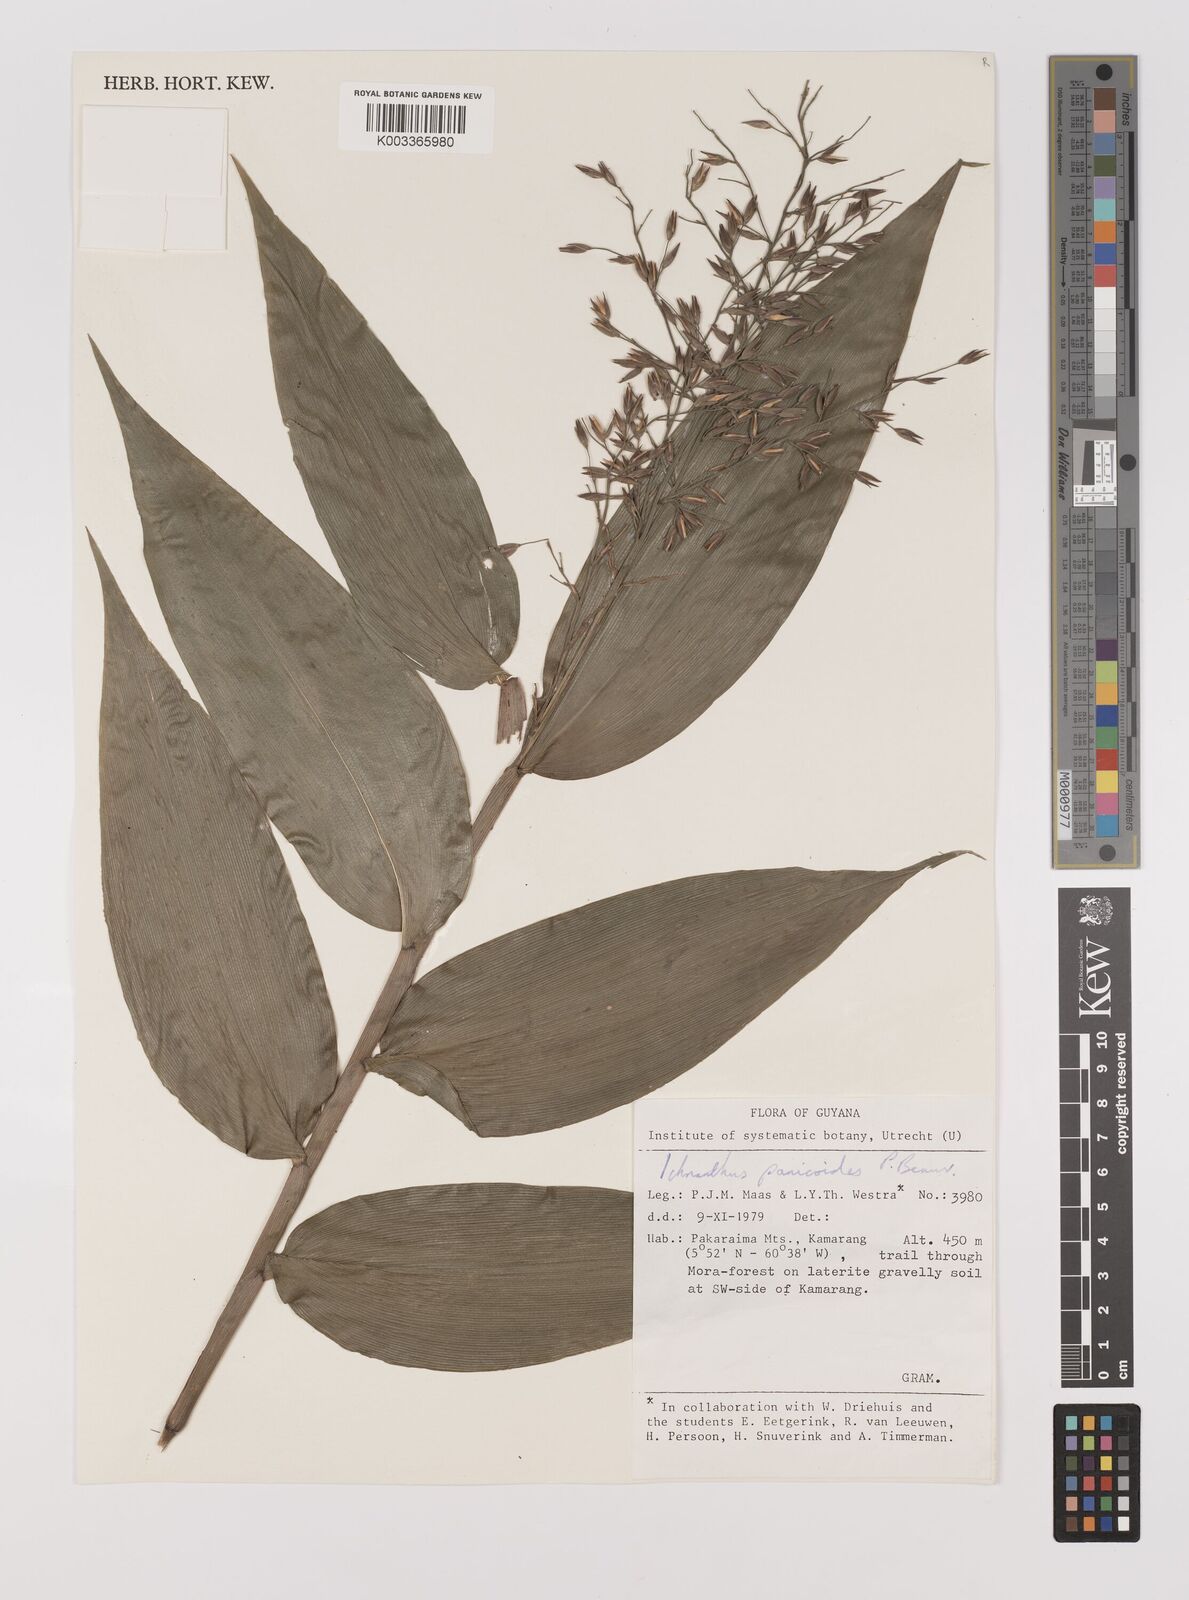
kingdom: Plantae
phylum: Tracheophyta
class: Liliopsida
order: Poales
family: Poaceae
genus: Ichnanthus
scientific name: Ichnanthus panicoides
